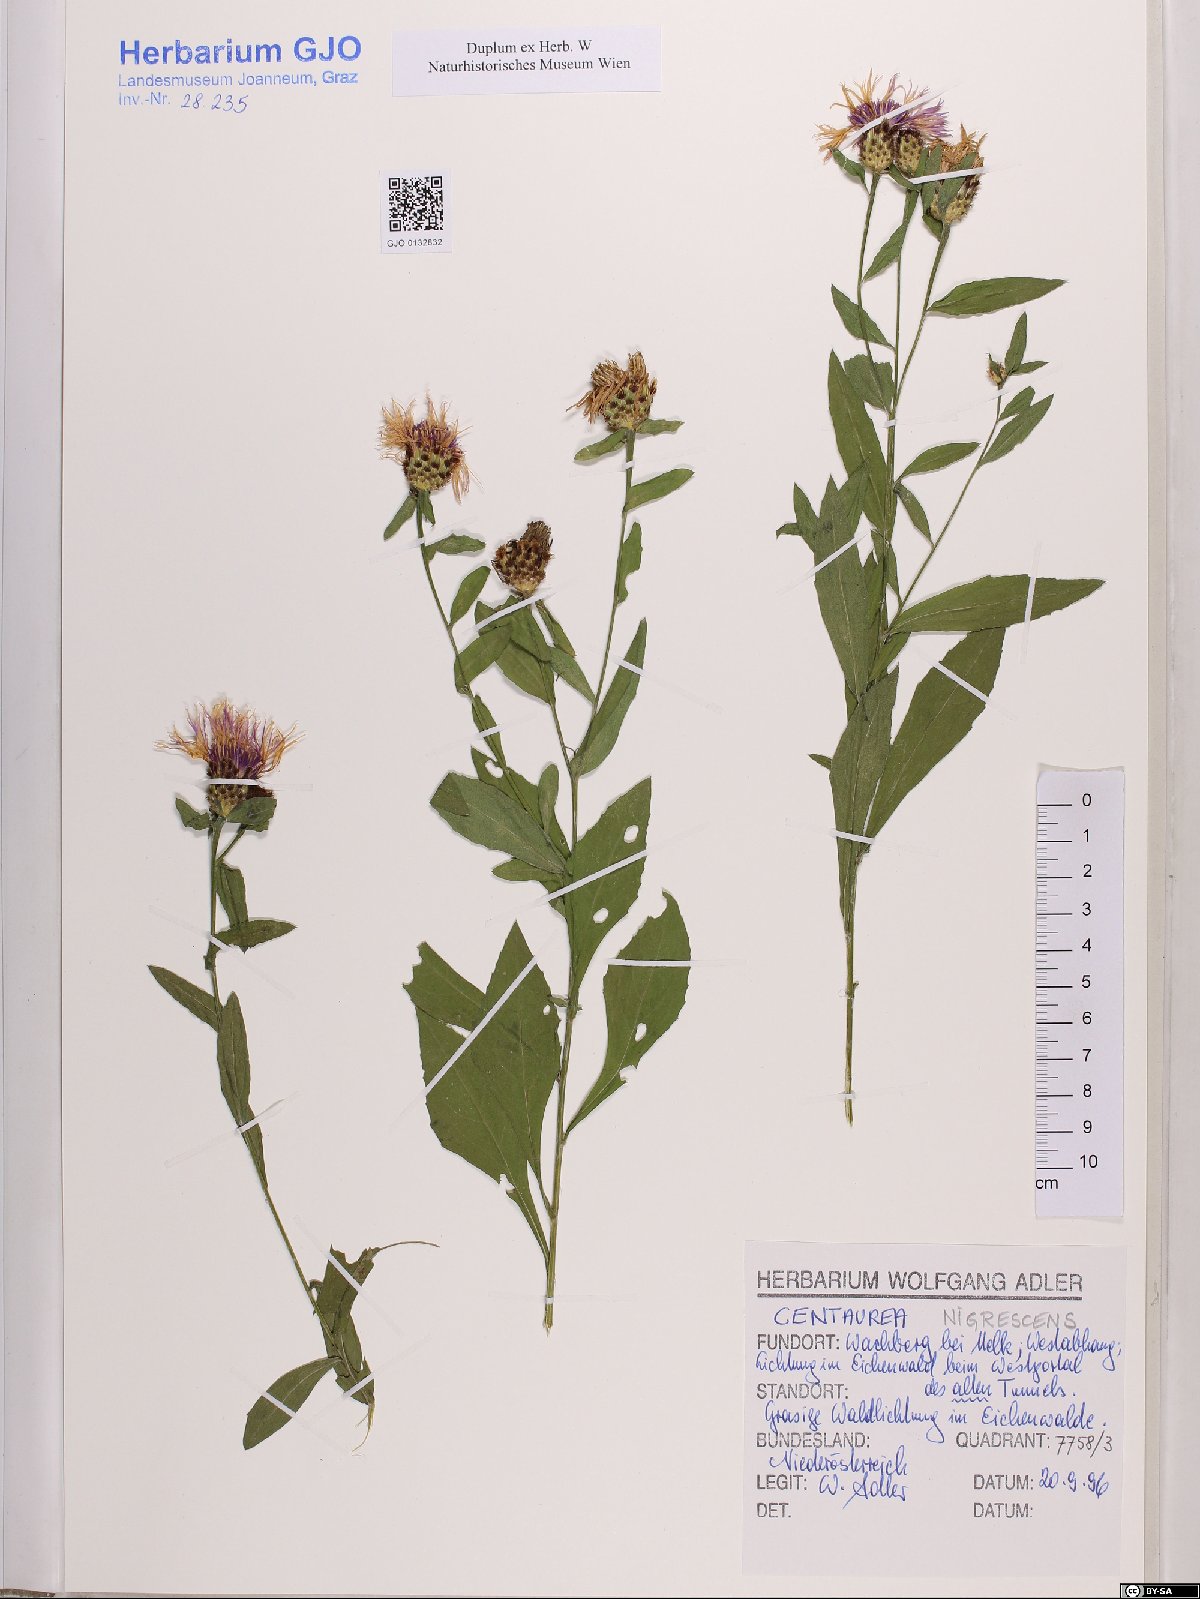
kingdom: Plantae
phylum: Tracheophyta
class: Magnoliopsida
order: Asterales
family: Asteraceae
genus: Centaurea
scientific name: Centaurea nigrescens
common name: Tyrol knapweed
